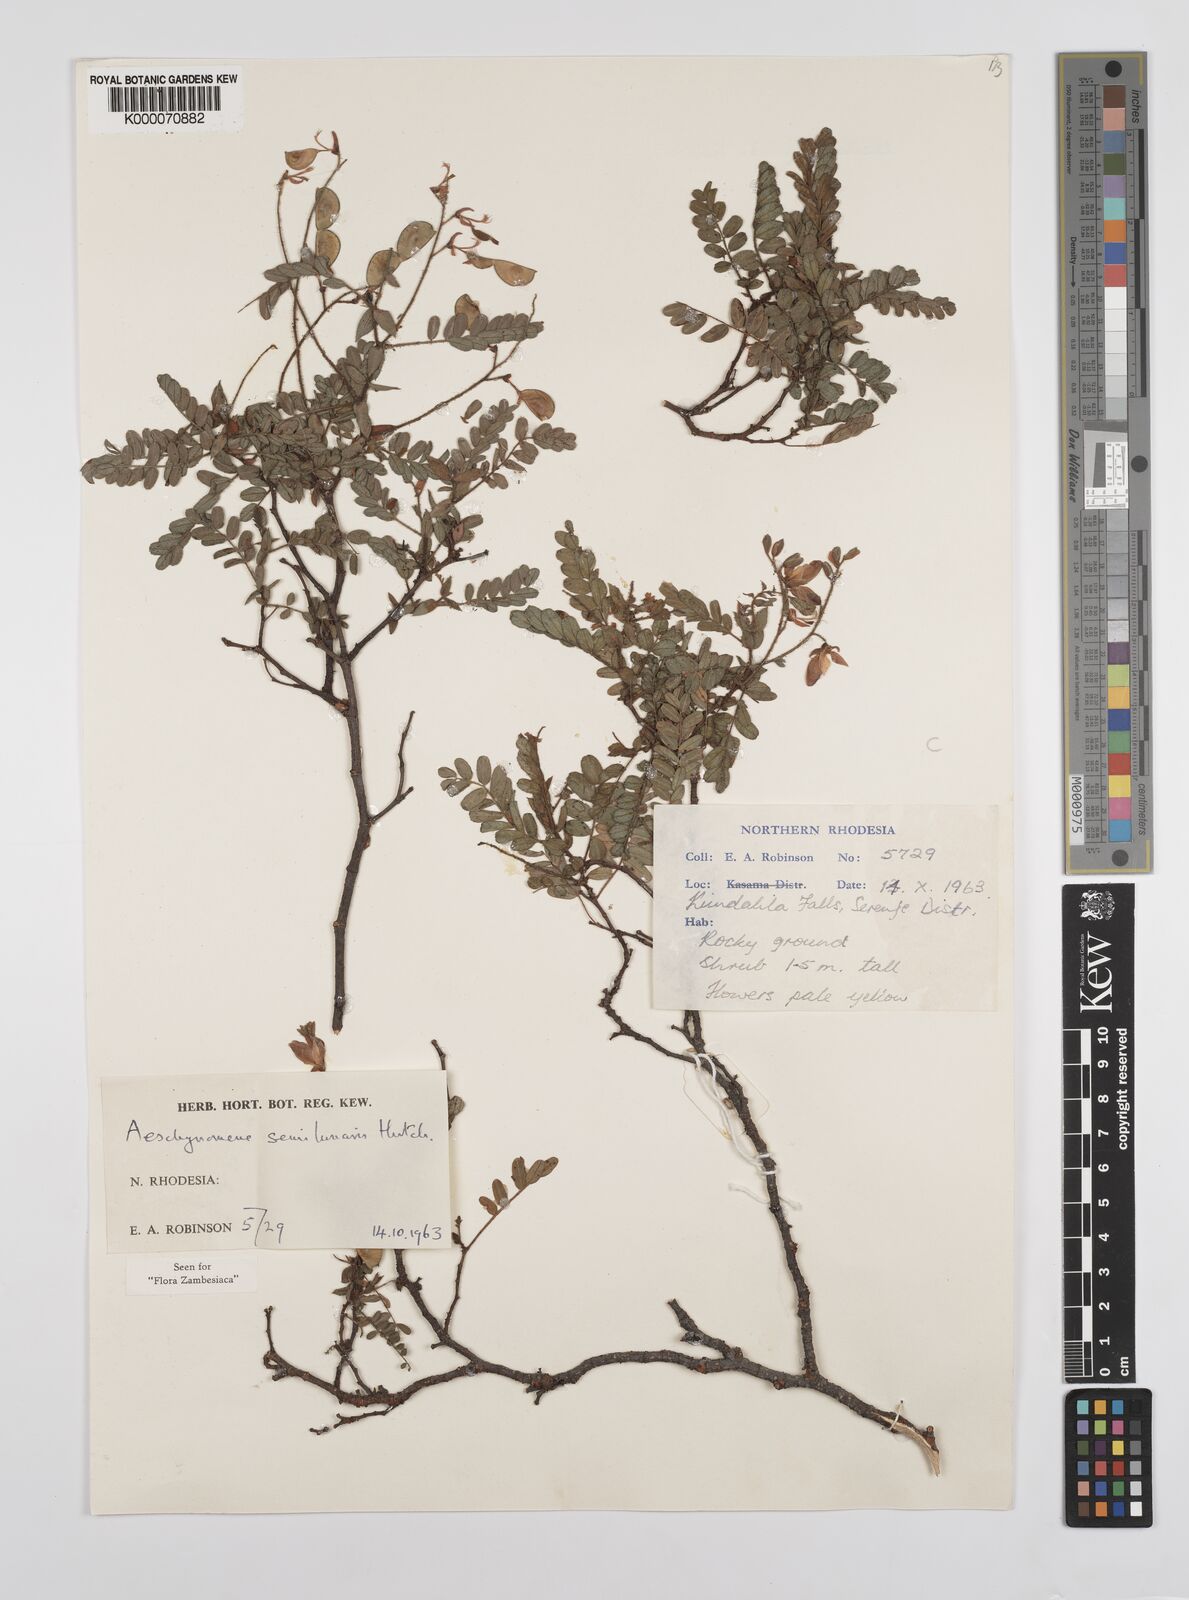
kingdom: Plantae
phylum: Tracheophyta
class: Magnoliopsida
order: Fabales
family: Fabaceae
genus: Aeschynomene
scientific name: Aeschynomene semilunaris
